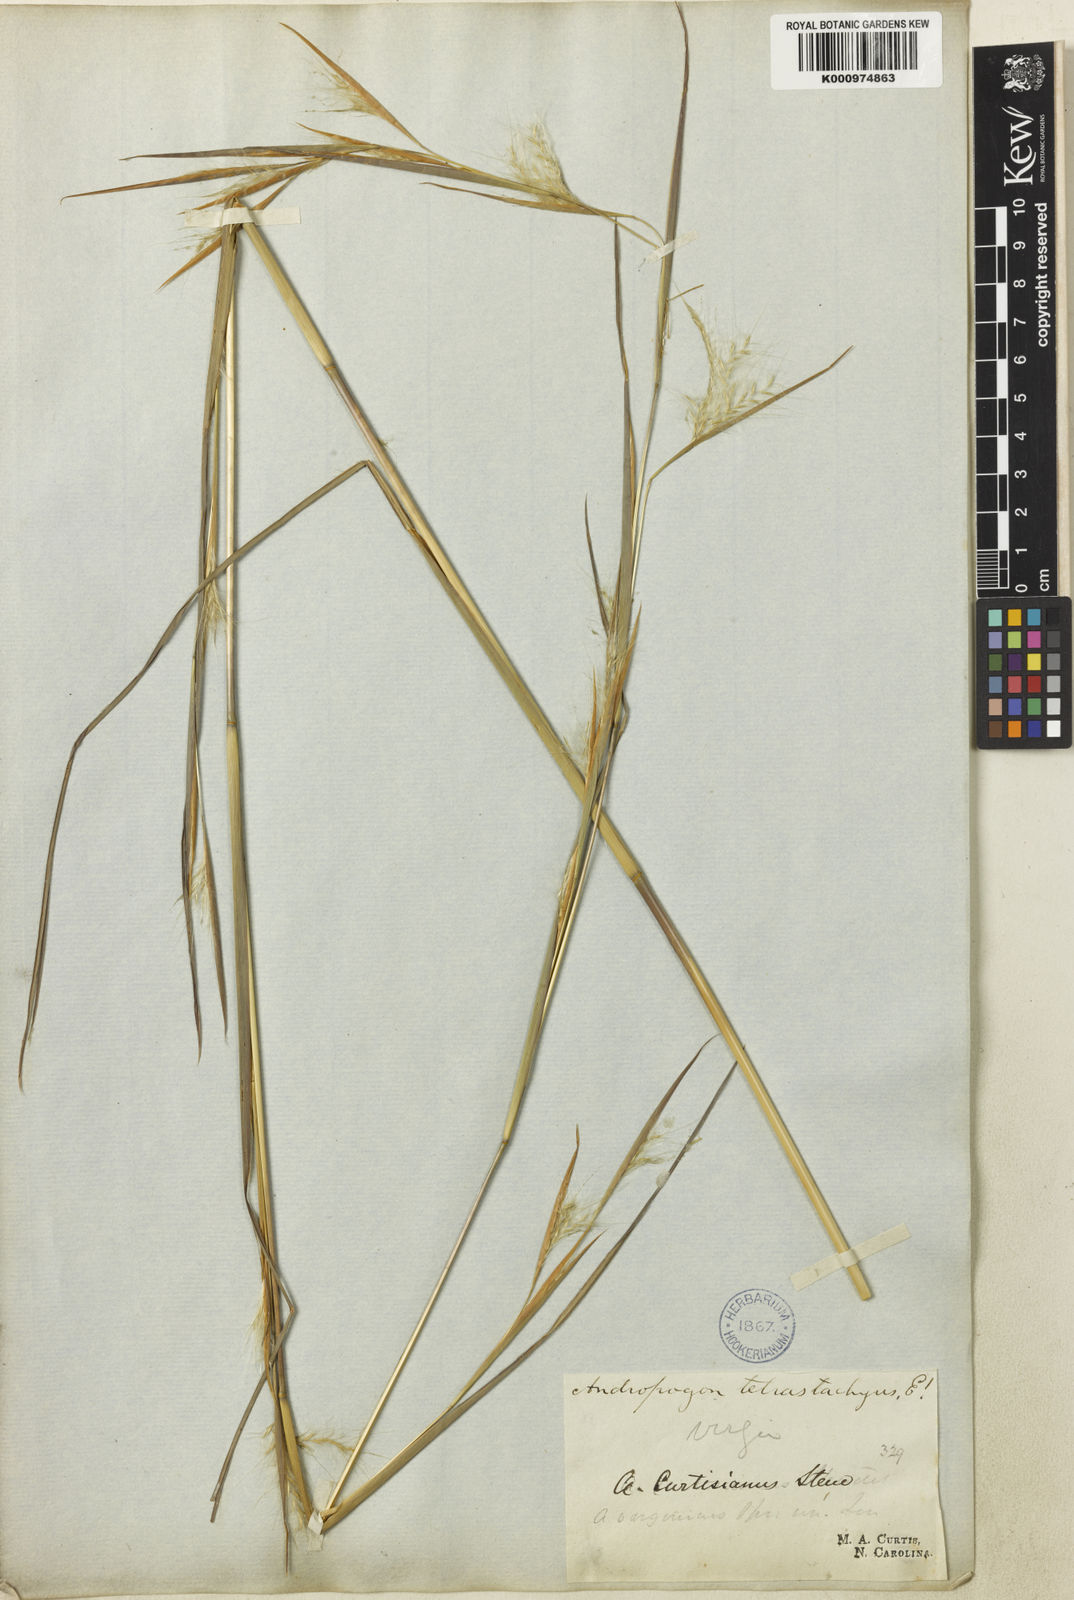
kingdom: Plantae
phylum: Tracheophyta
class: Liliopsida
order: Poales
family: Poaceae
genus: Andropogon
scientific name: Andropogon virginicus
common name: Broomsedge bluestem
